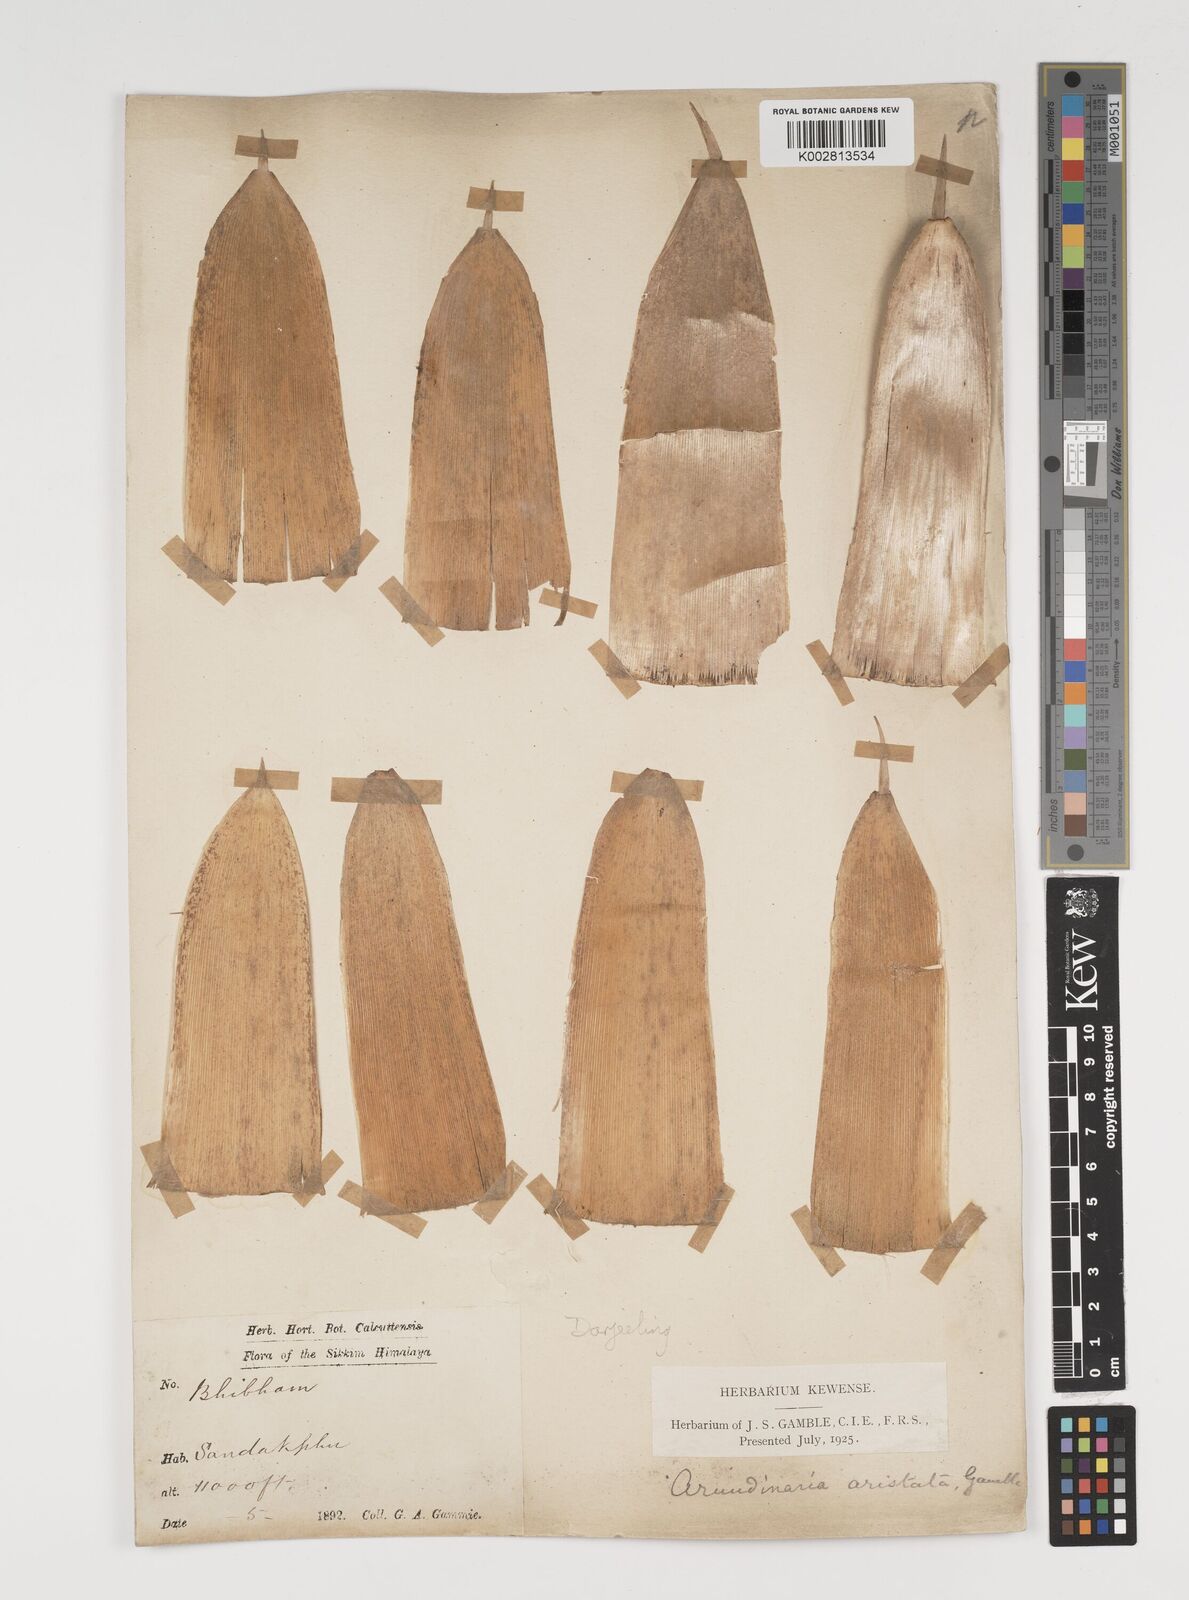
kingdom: Plantae
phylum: Tracheophyta
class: Liliopsida
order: Poales
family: Poaceae
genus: Thamnocalamus
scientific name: Thamnocalamus spathiflorus
